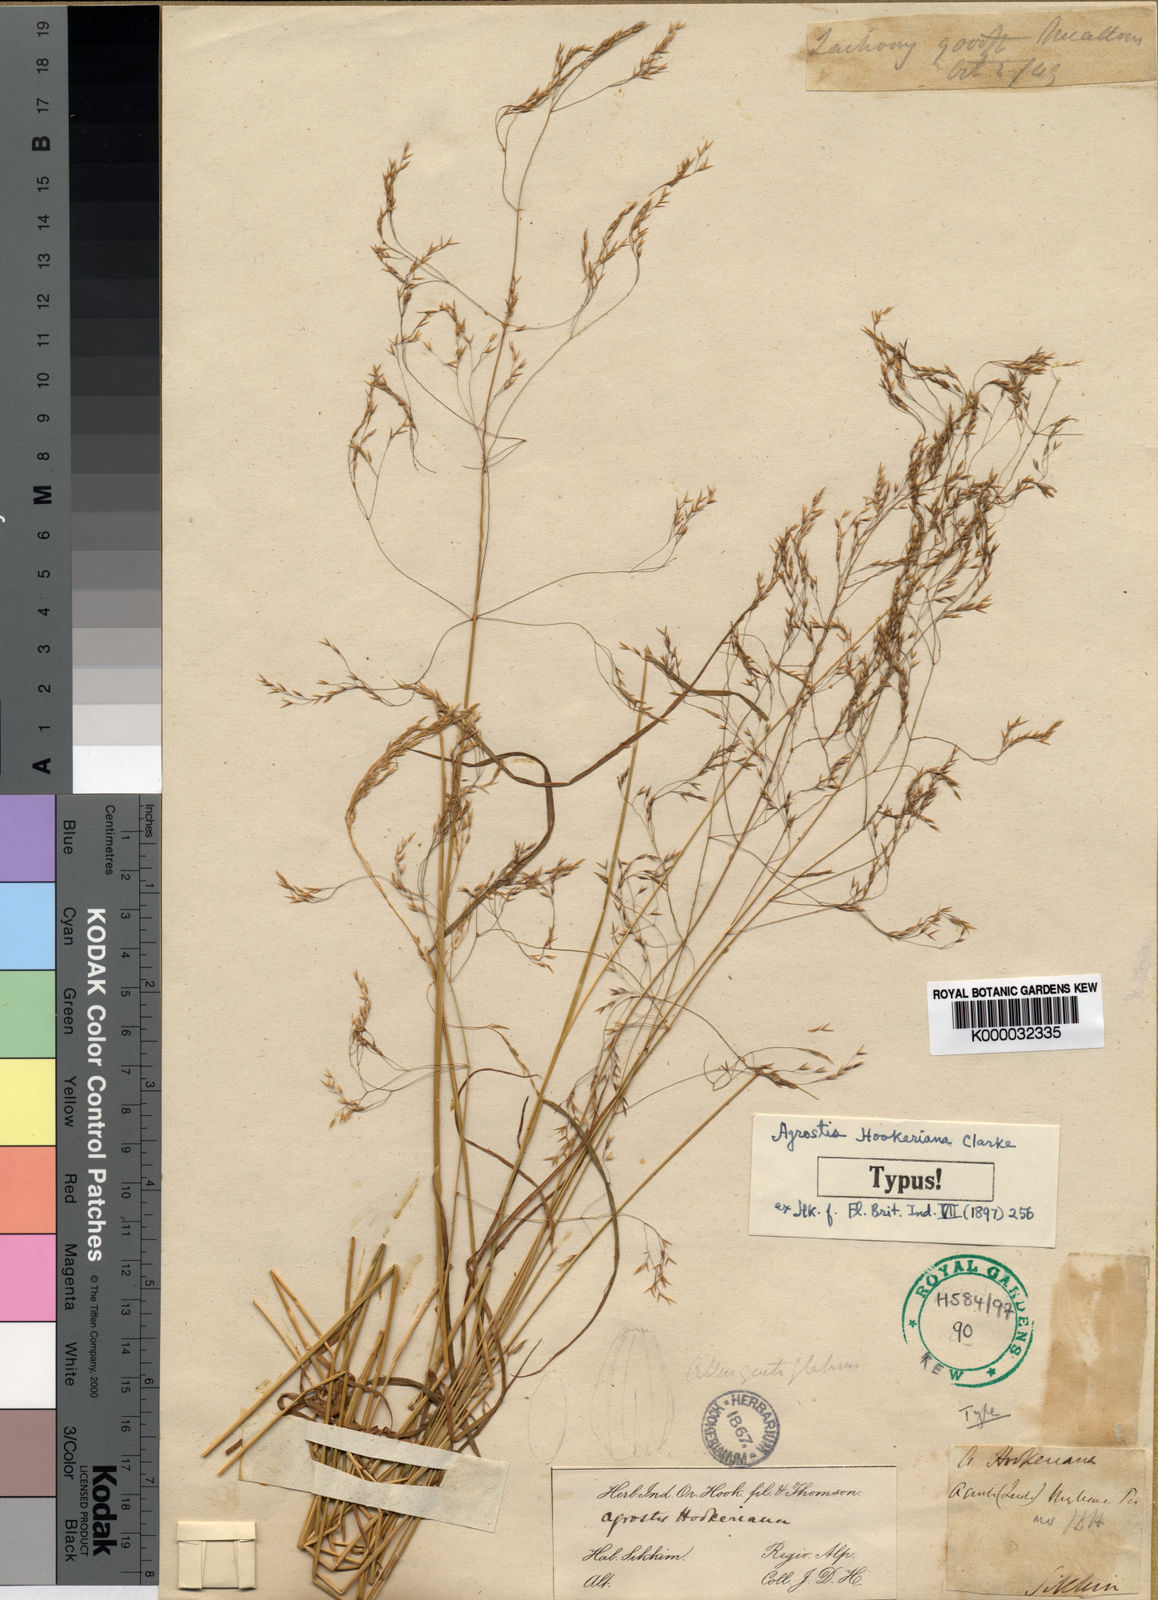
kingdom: Plantae
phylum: Tracheophyta
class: Liliopsida
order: Poales
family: Poaceae
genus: Agrostis
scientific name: Agrostis hookeriana
